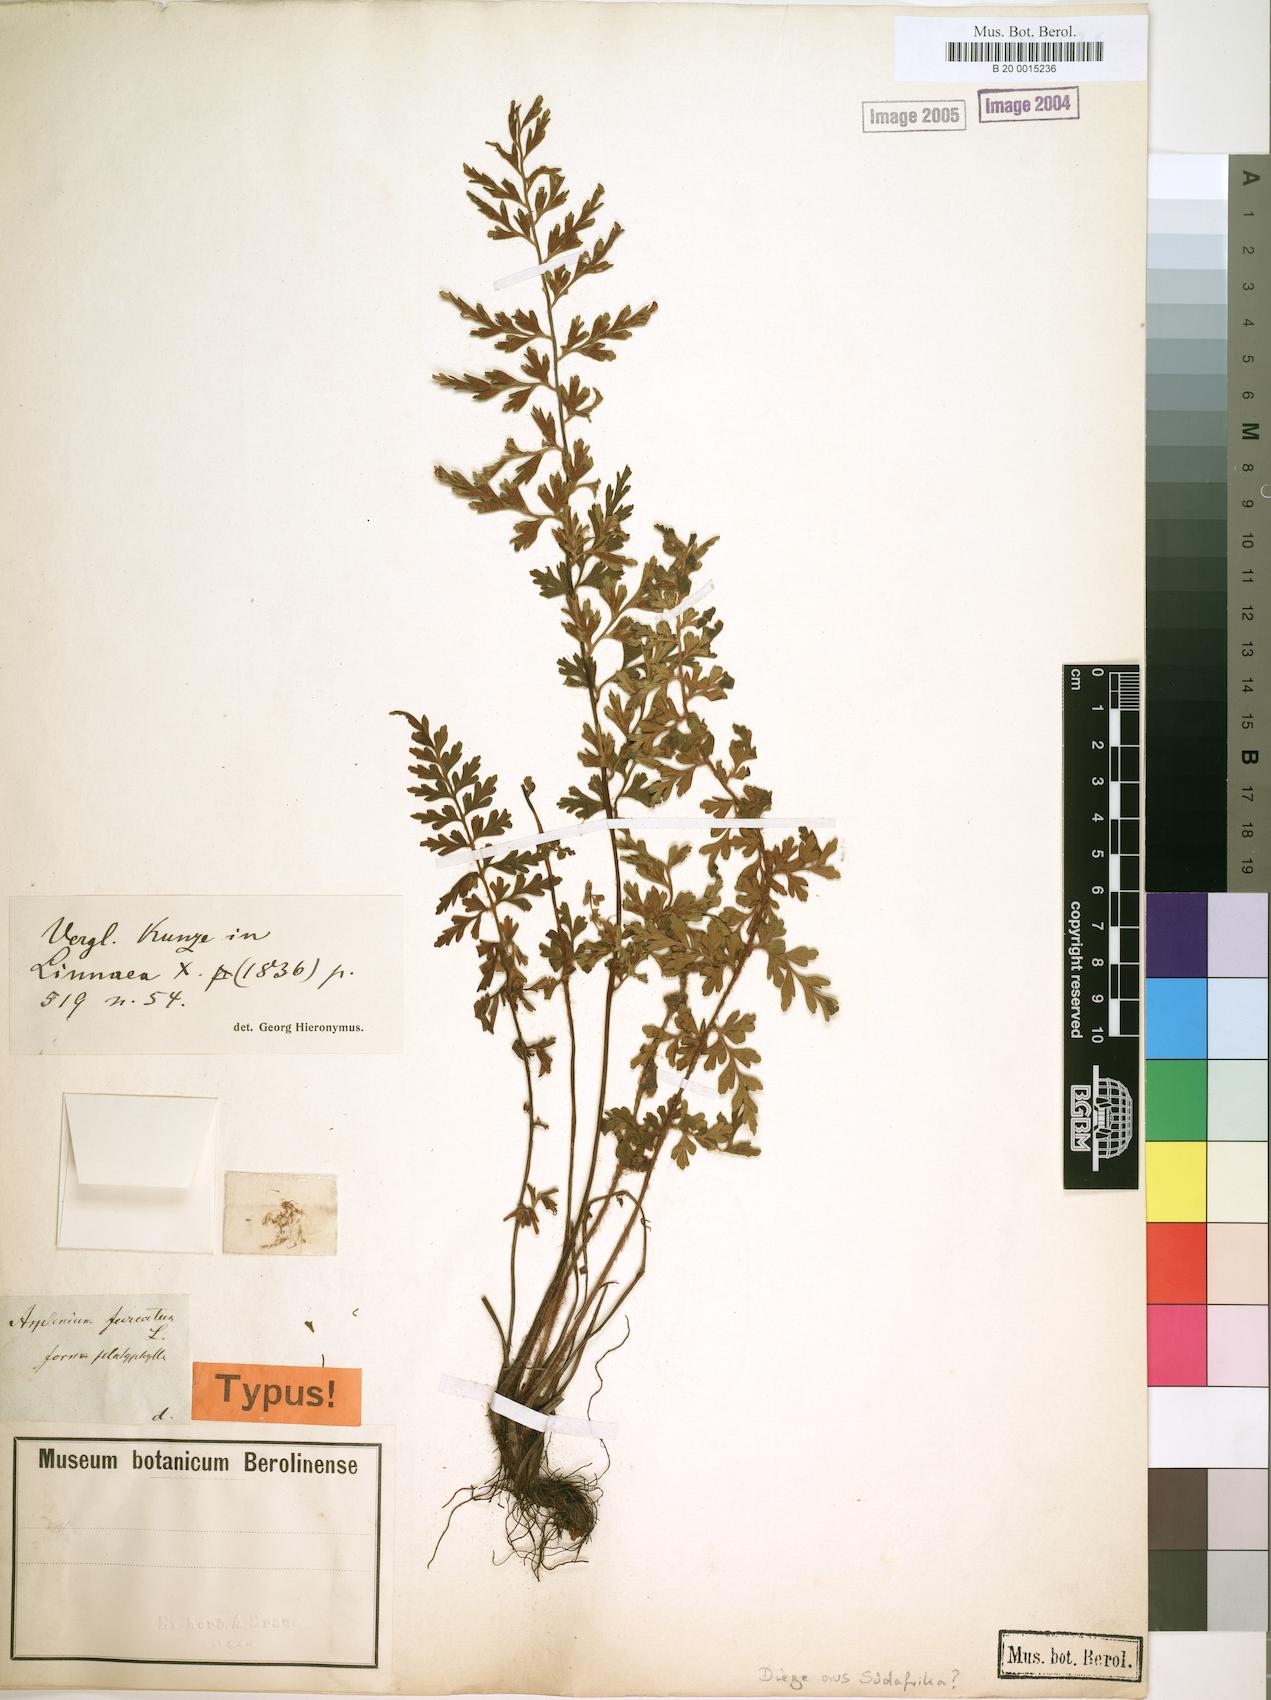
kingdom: Plantae
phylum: Tracheophyta
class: Polypodiopsida
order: Polypodiales
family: Aspleniaceae
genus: Asplenium
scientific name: Asplenium aethiopicum
